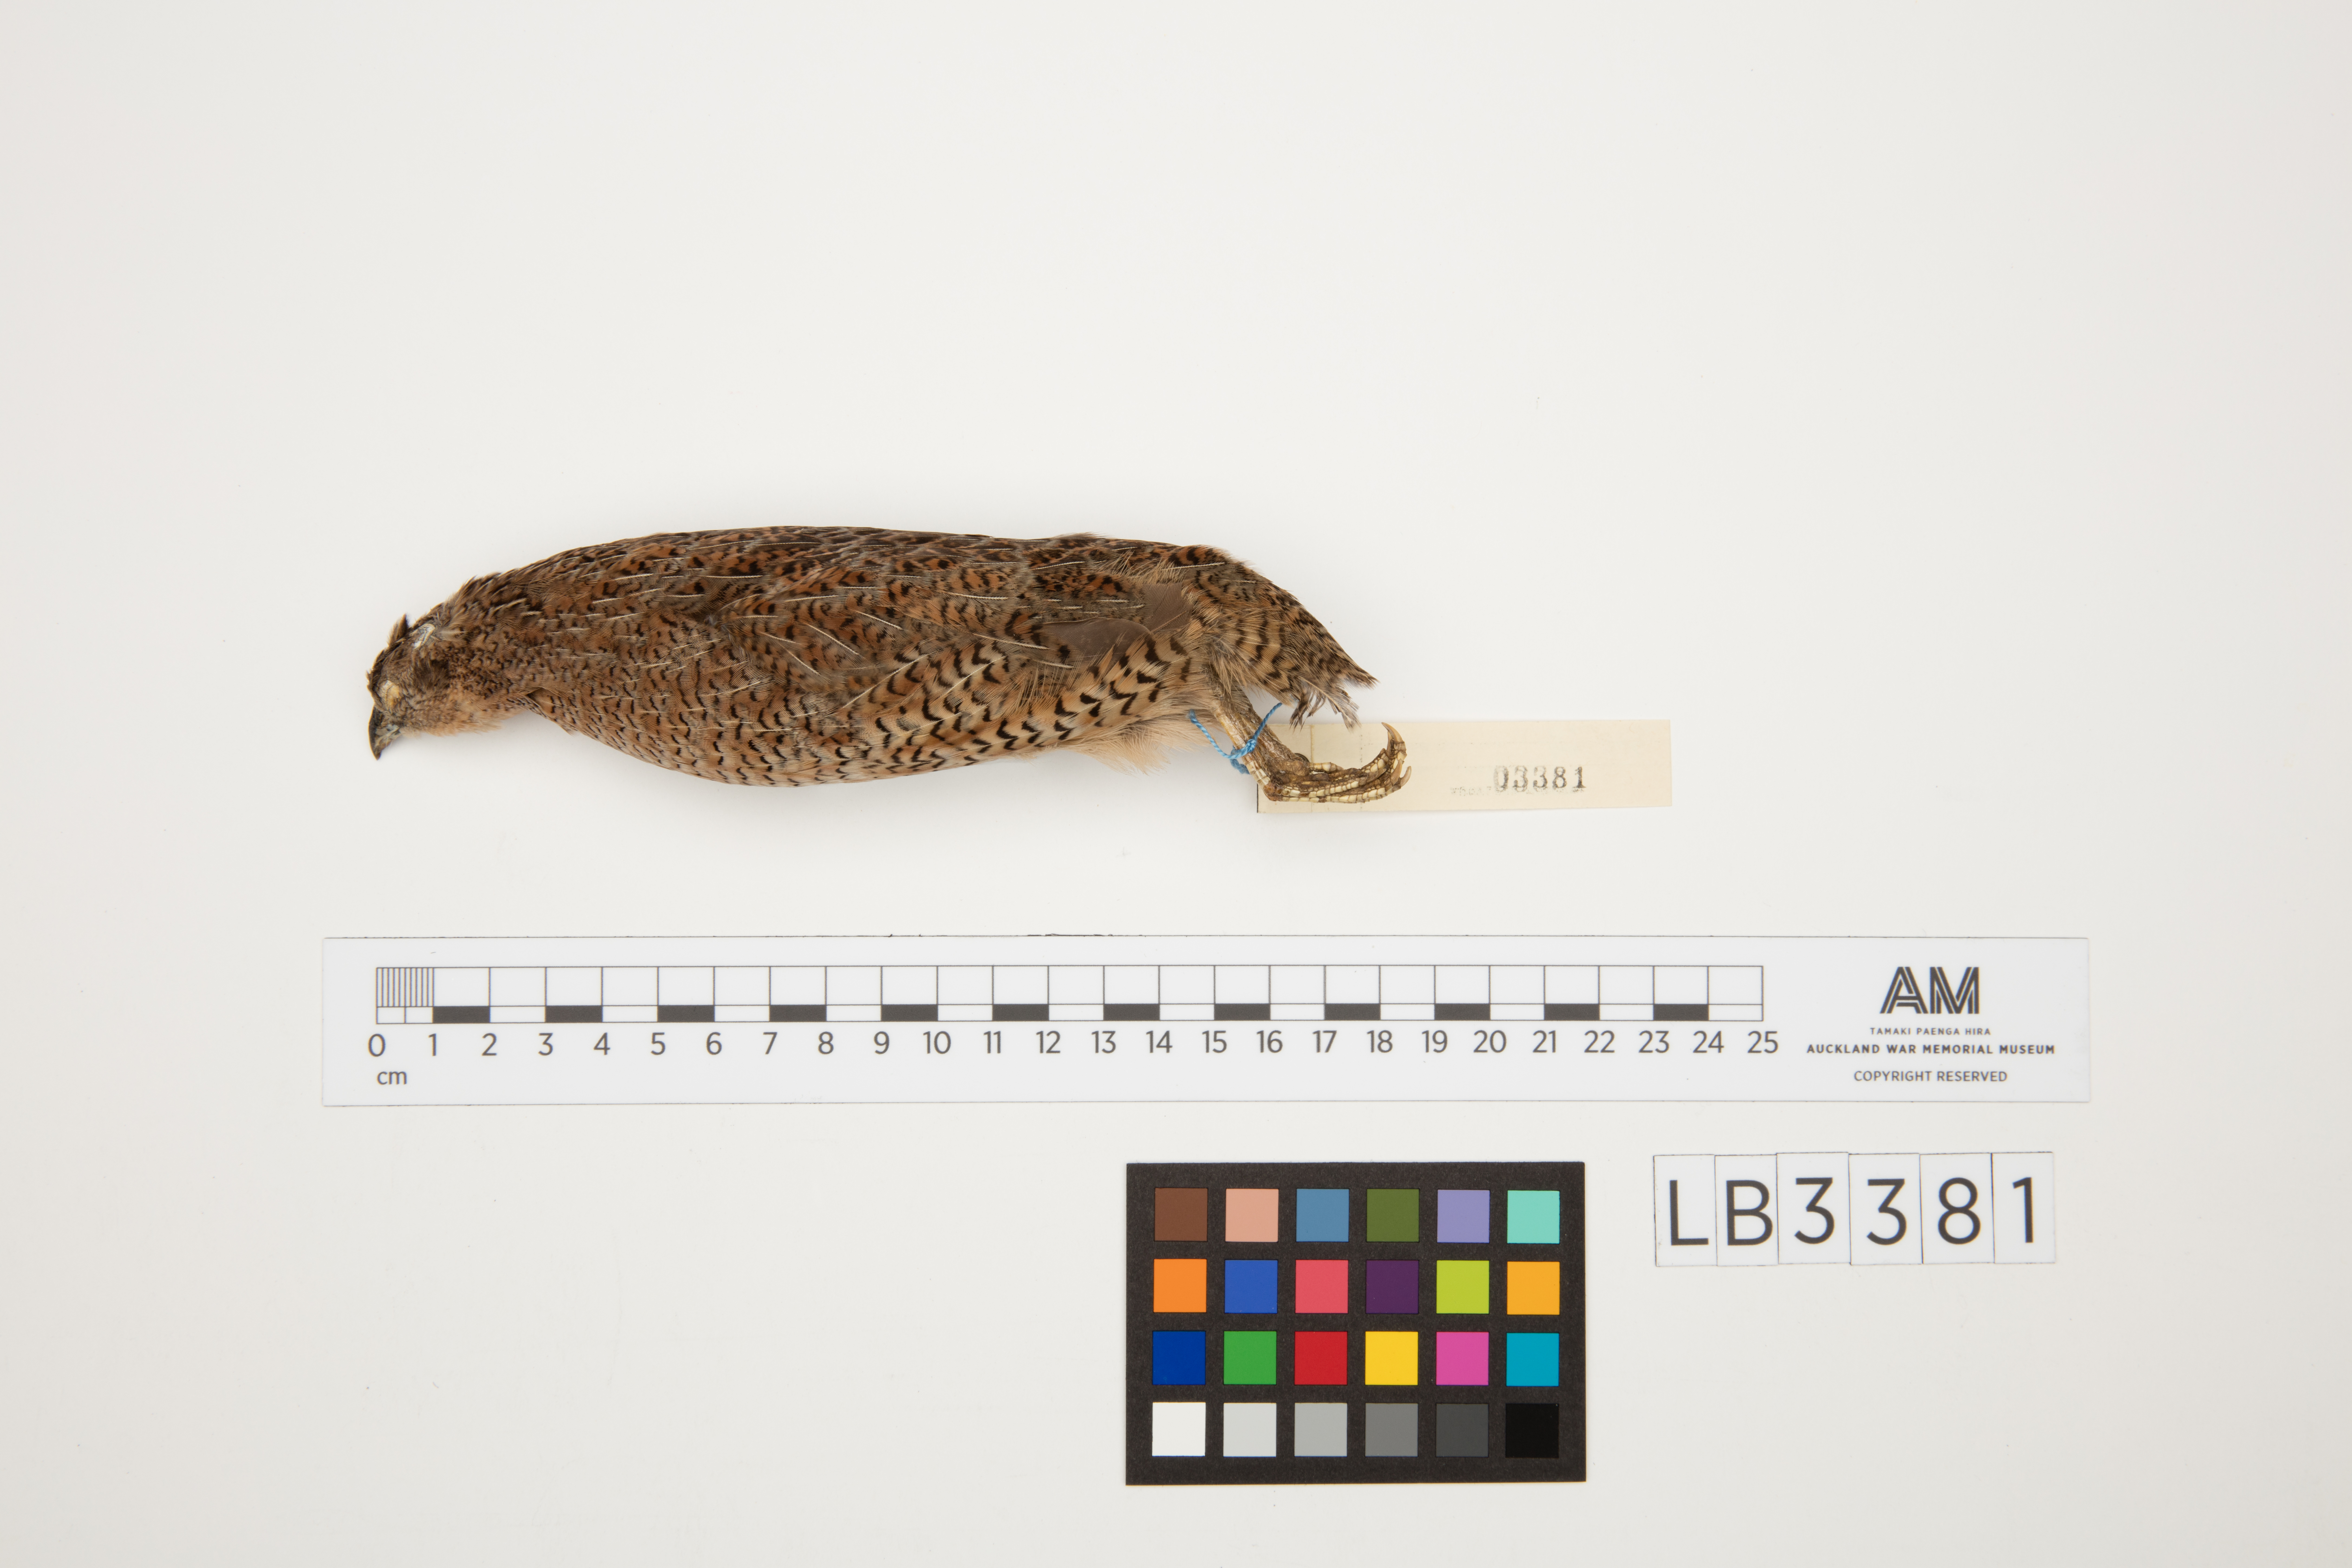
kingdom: Animalia
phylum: Chordata
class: Aves
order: Galliformes
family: Phasianidae
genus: Synoicus
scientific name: Synoicus ypsilophorus
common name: Brown quail
